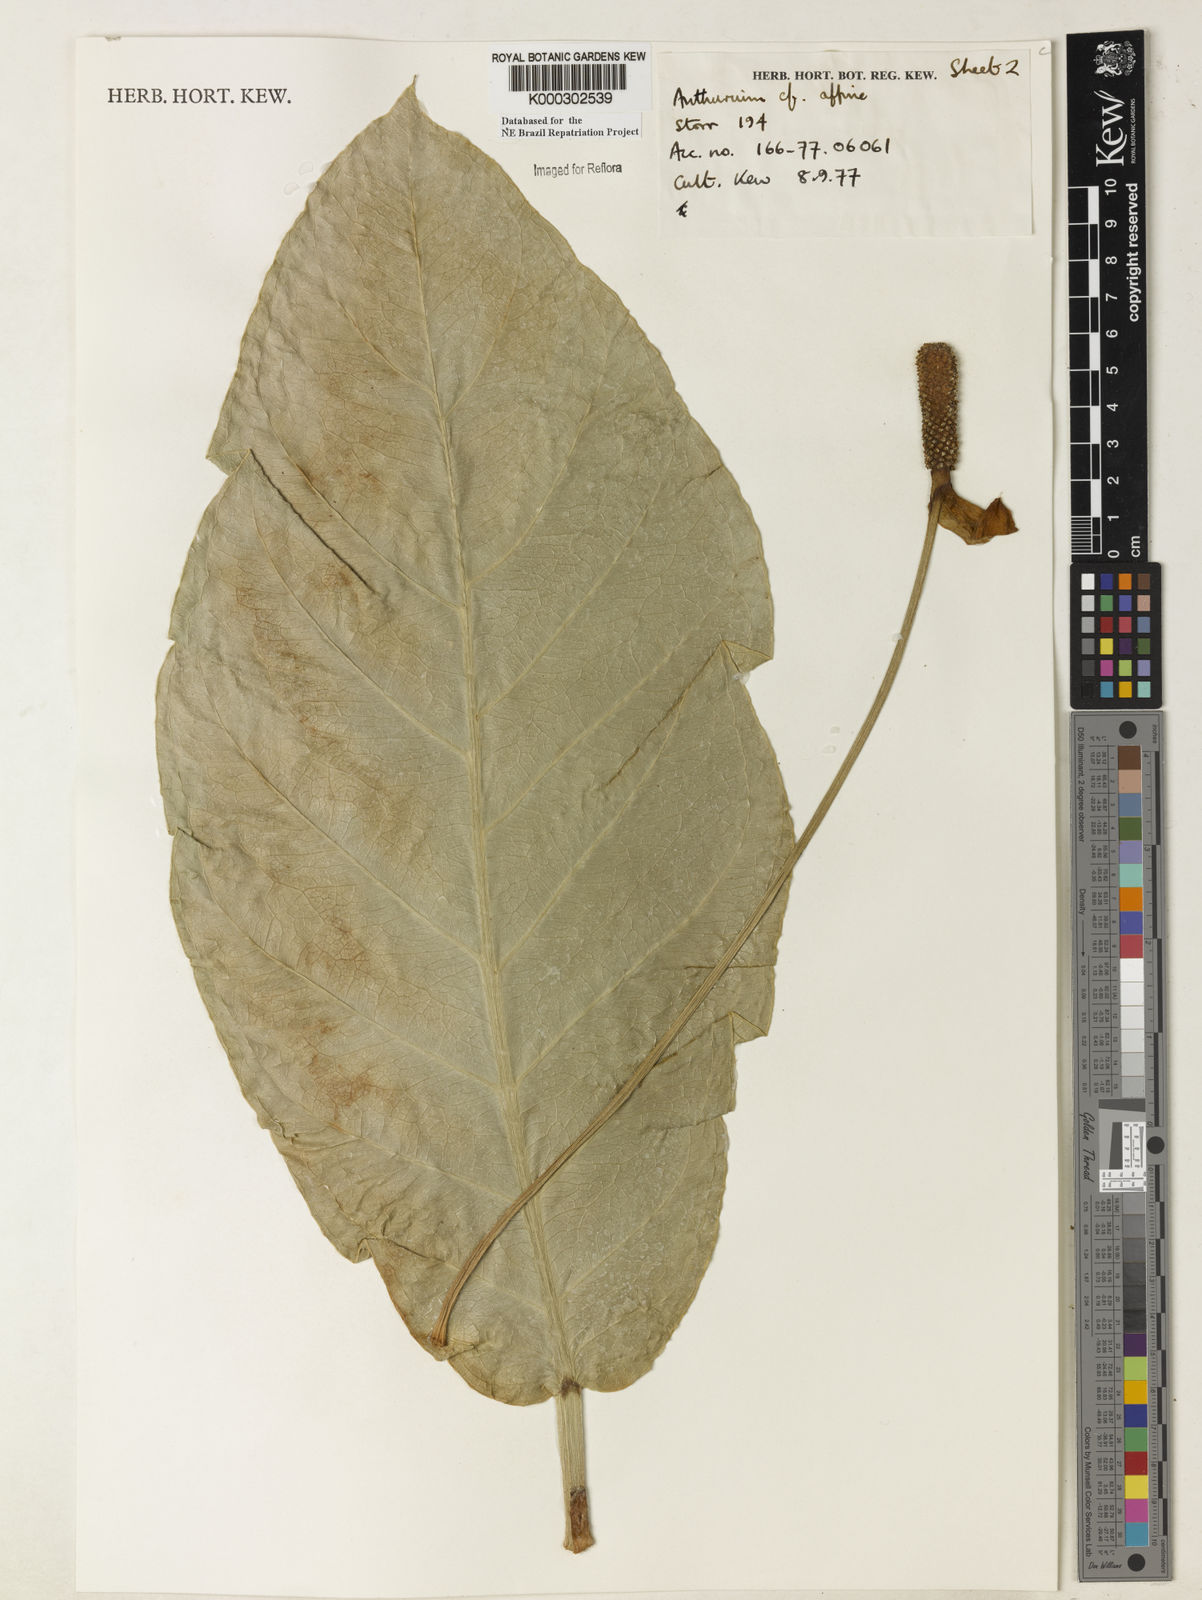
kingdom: Plantae
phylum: Tracheophyta
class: Liliopsida
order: Alismatales
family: Araceae
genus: Anthurium
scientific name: Anthurium affine
